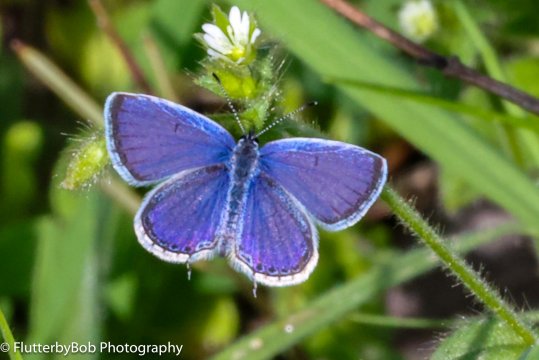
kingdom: Animalia
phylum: Arthropoda
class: Insecta
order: Lepidoptera
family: Lycaenidae
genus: Elkalyce
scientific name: Elkalyce comyntas
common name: Eastern Tailed-Blue
